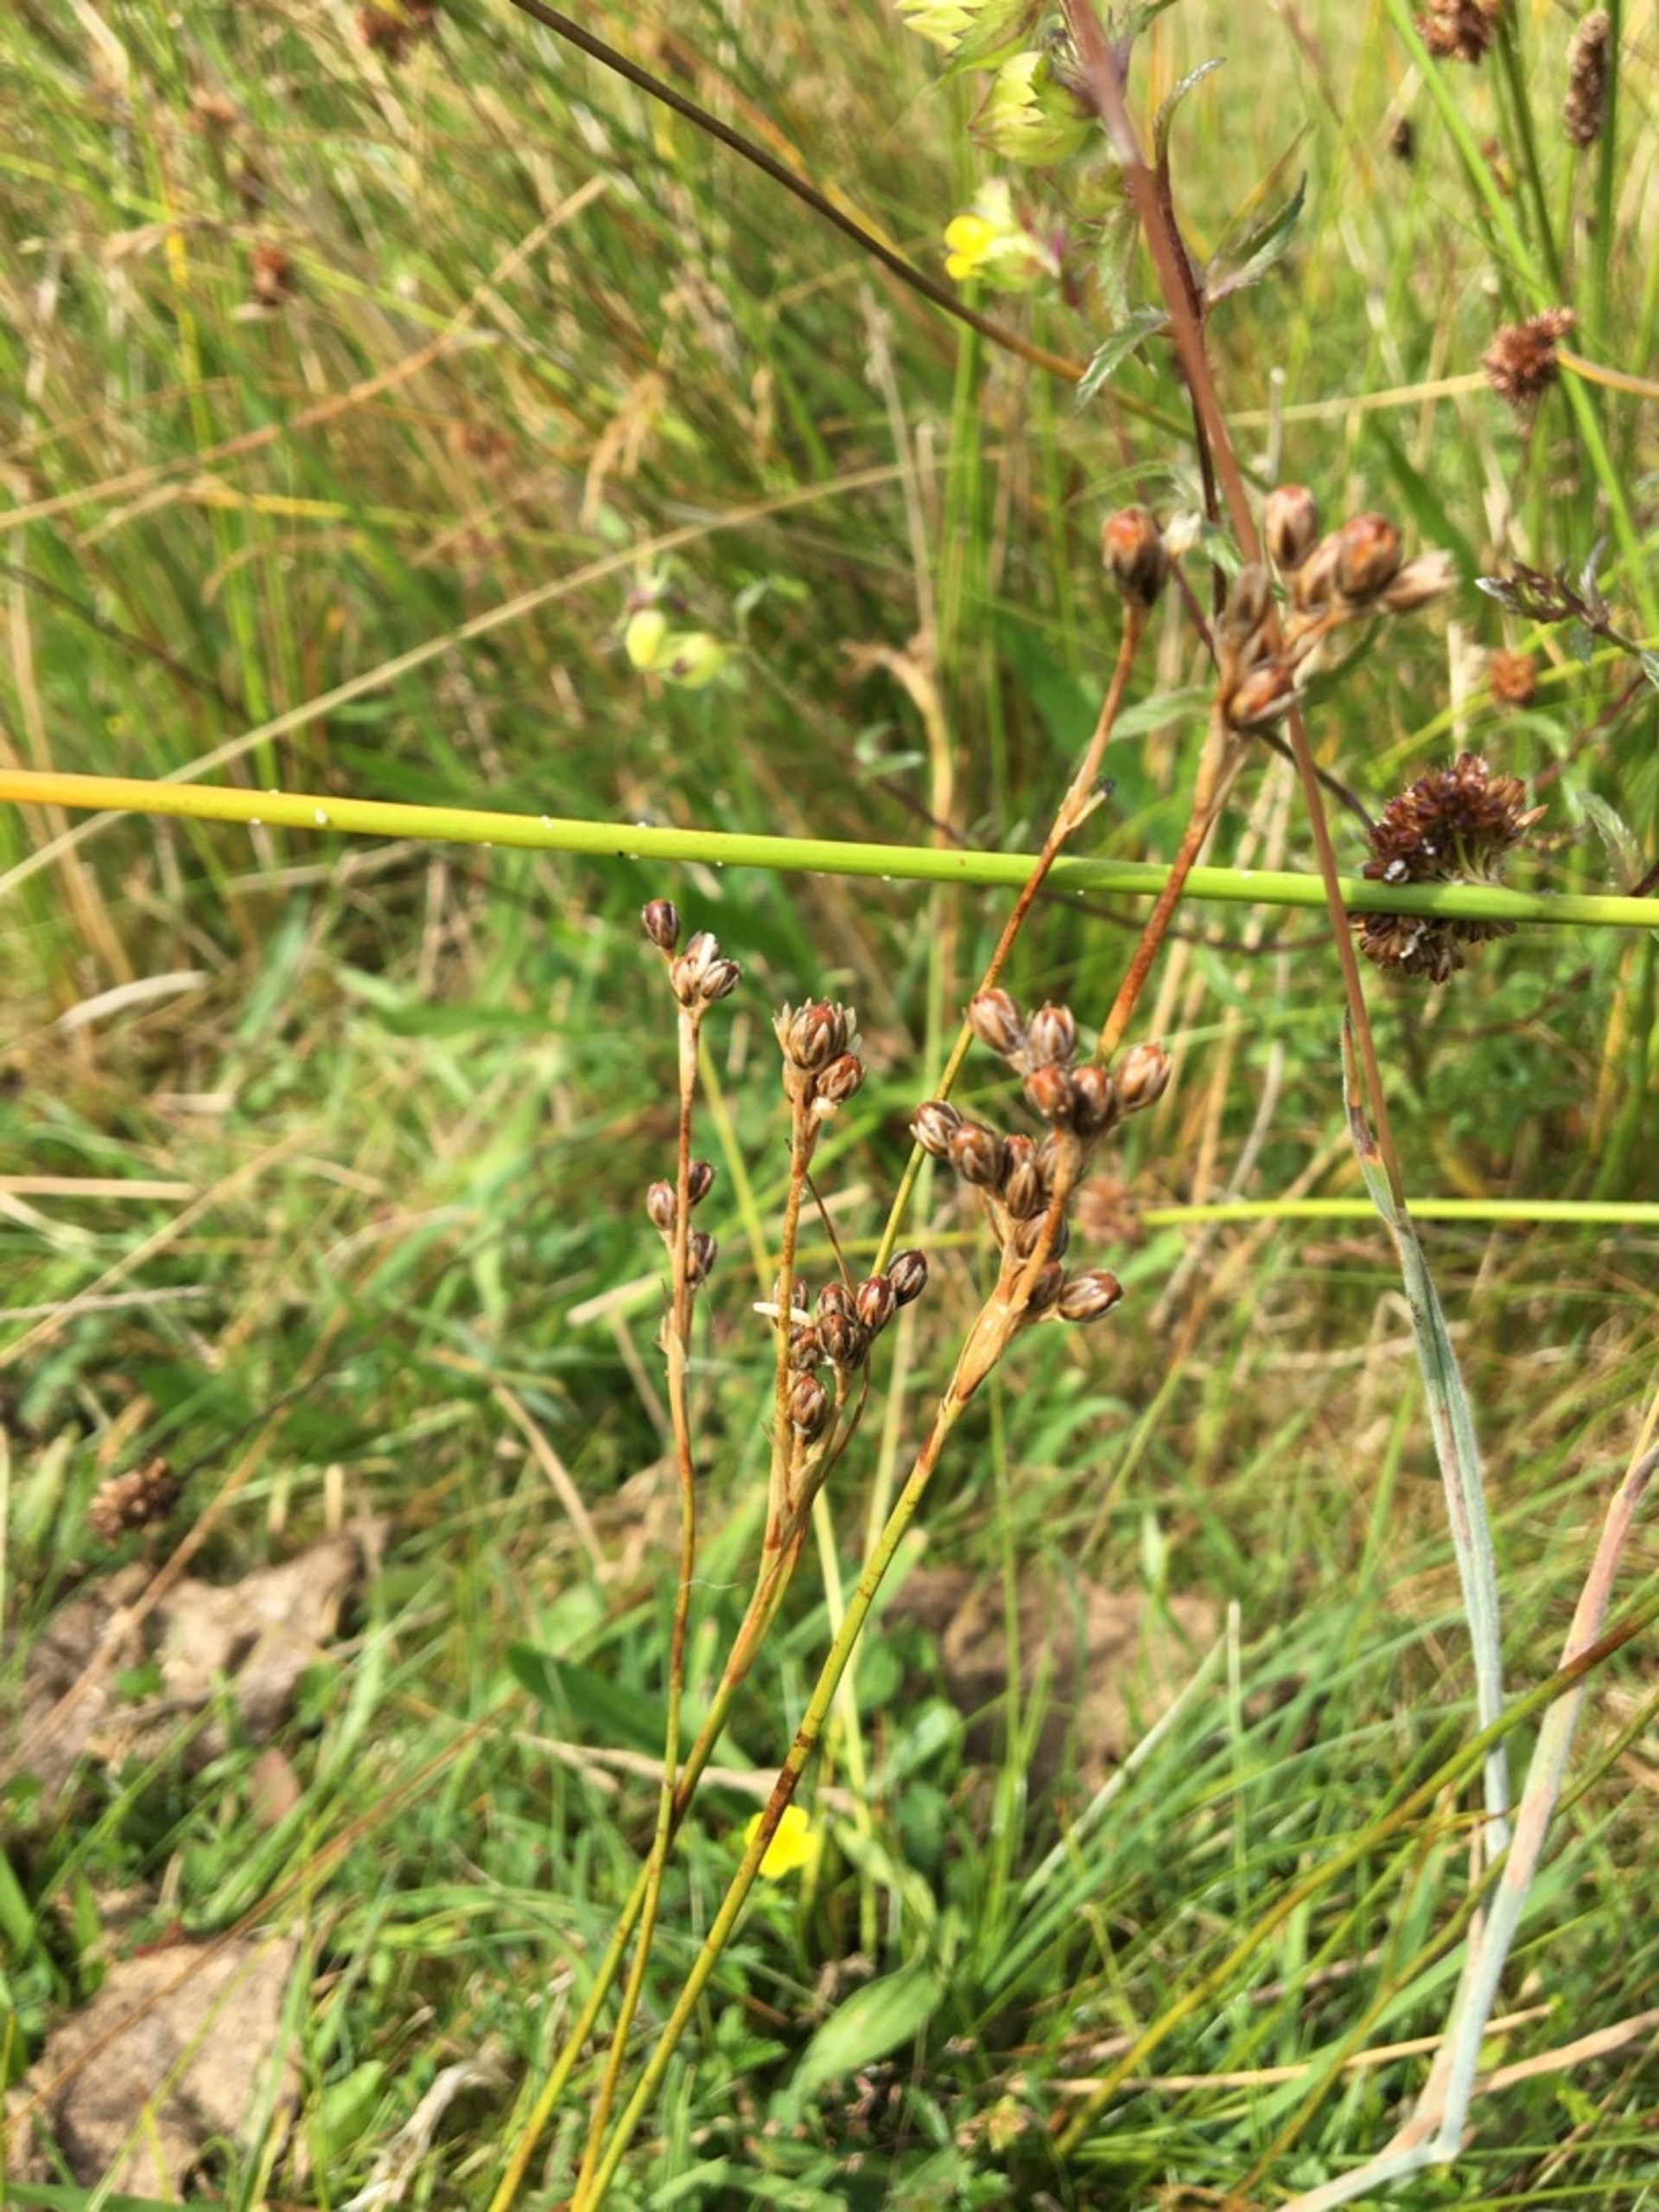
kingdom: Plantae
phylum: Tracheophyta
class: Liliopsida
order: Poales
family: Juncaceae
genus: Juncus
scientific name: Juncus squarrosus
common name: Børste-siv
